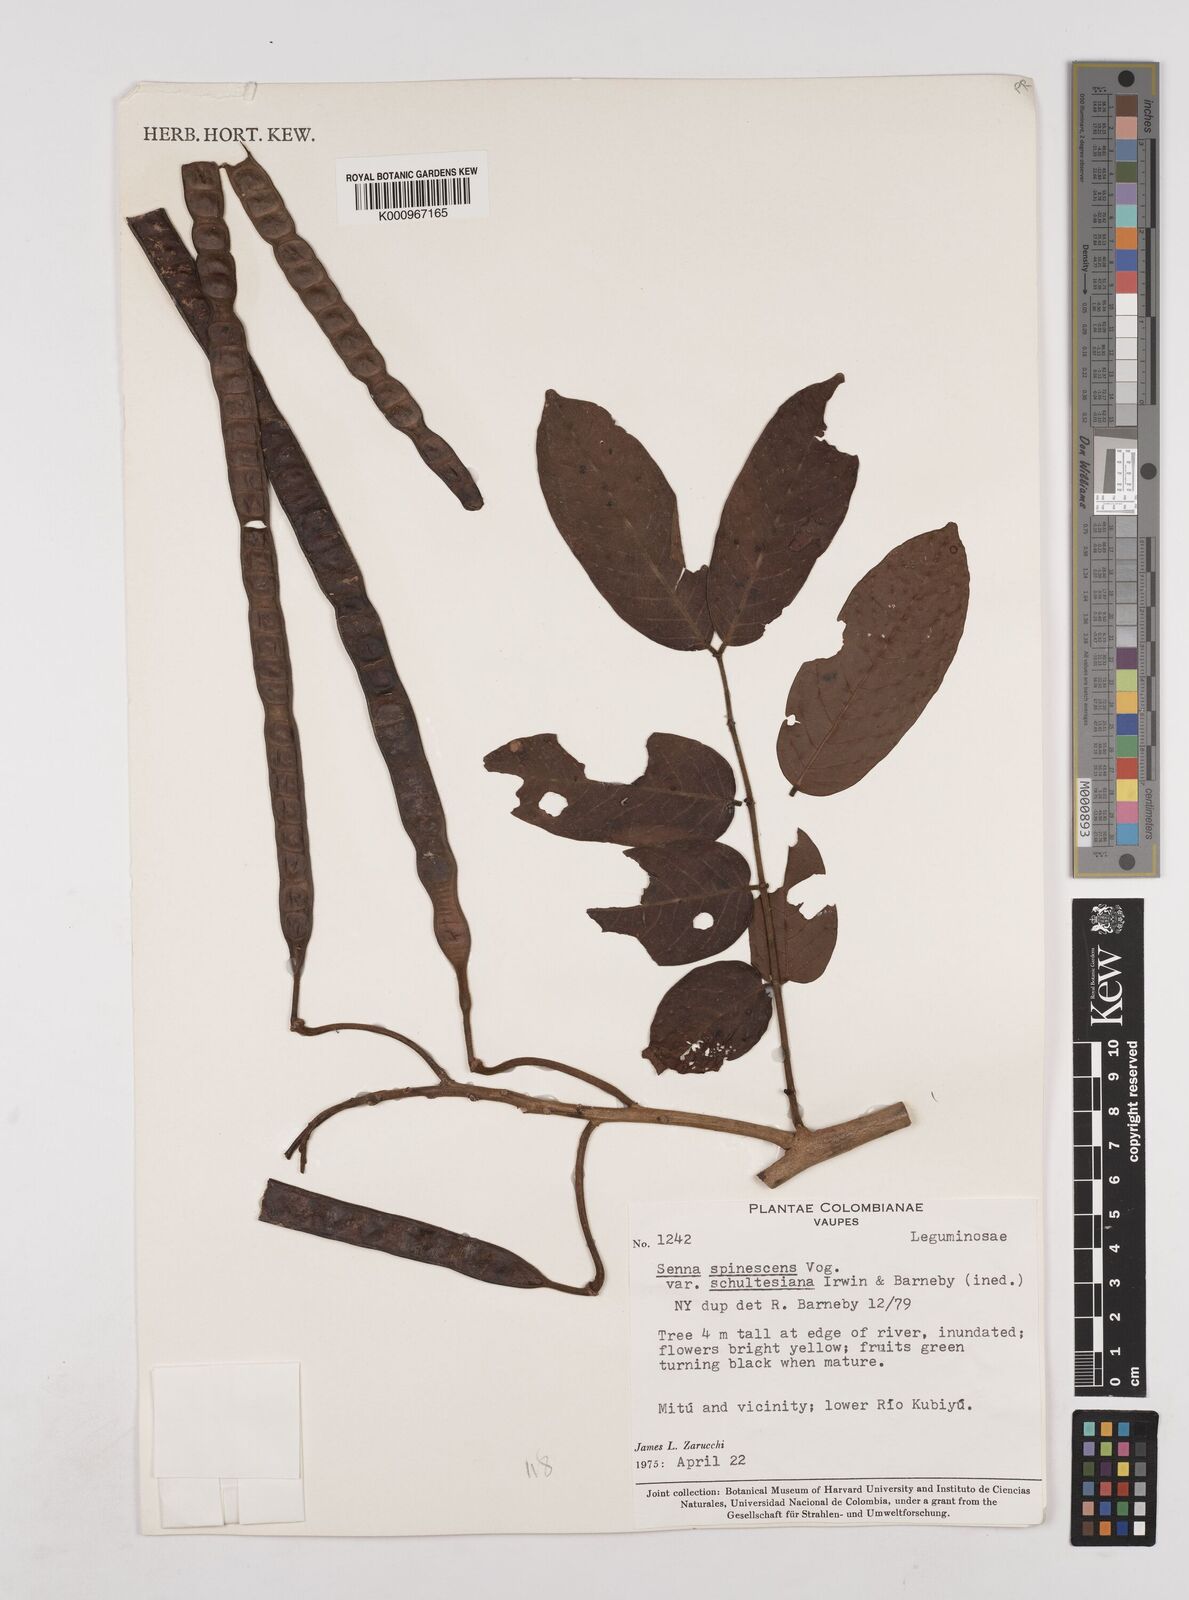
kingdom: Plantae
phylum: Tracheophyta
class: Magnoliopsida
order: Fabales
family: Fabaceae
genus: Senna
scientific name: Senna spinescens
